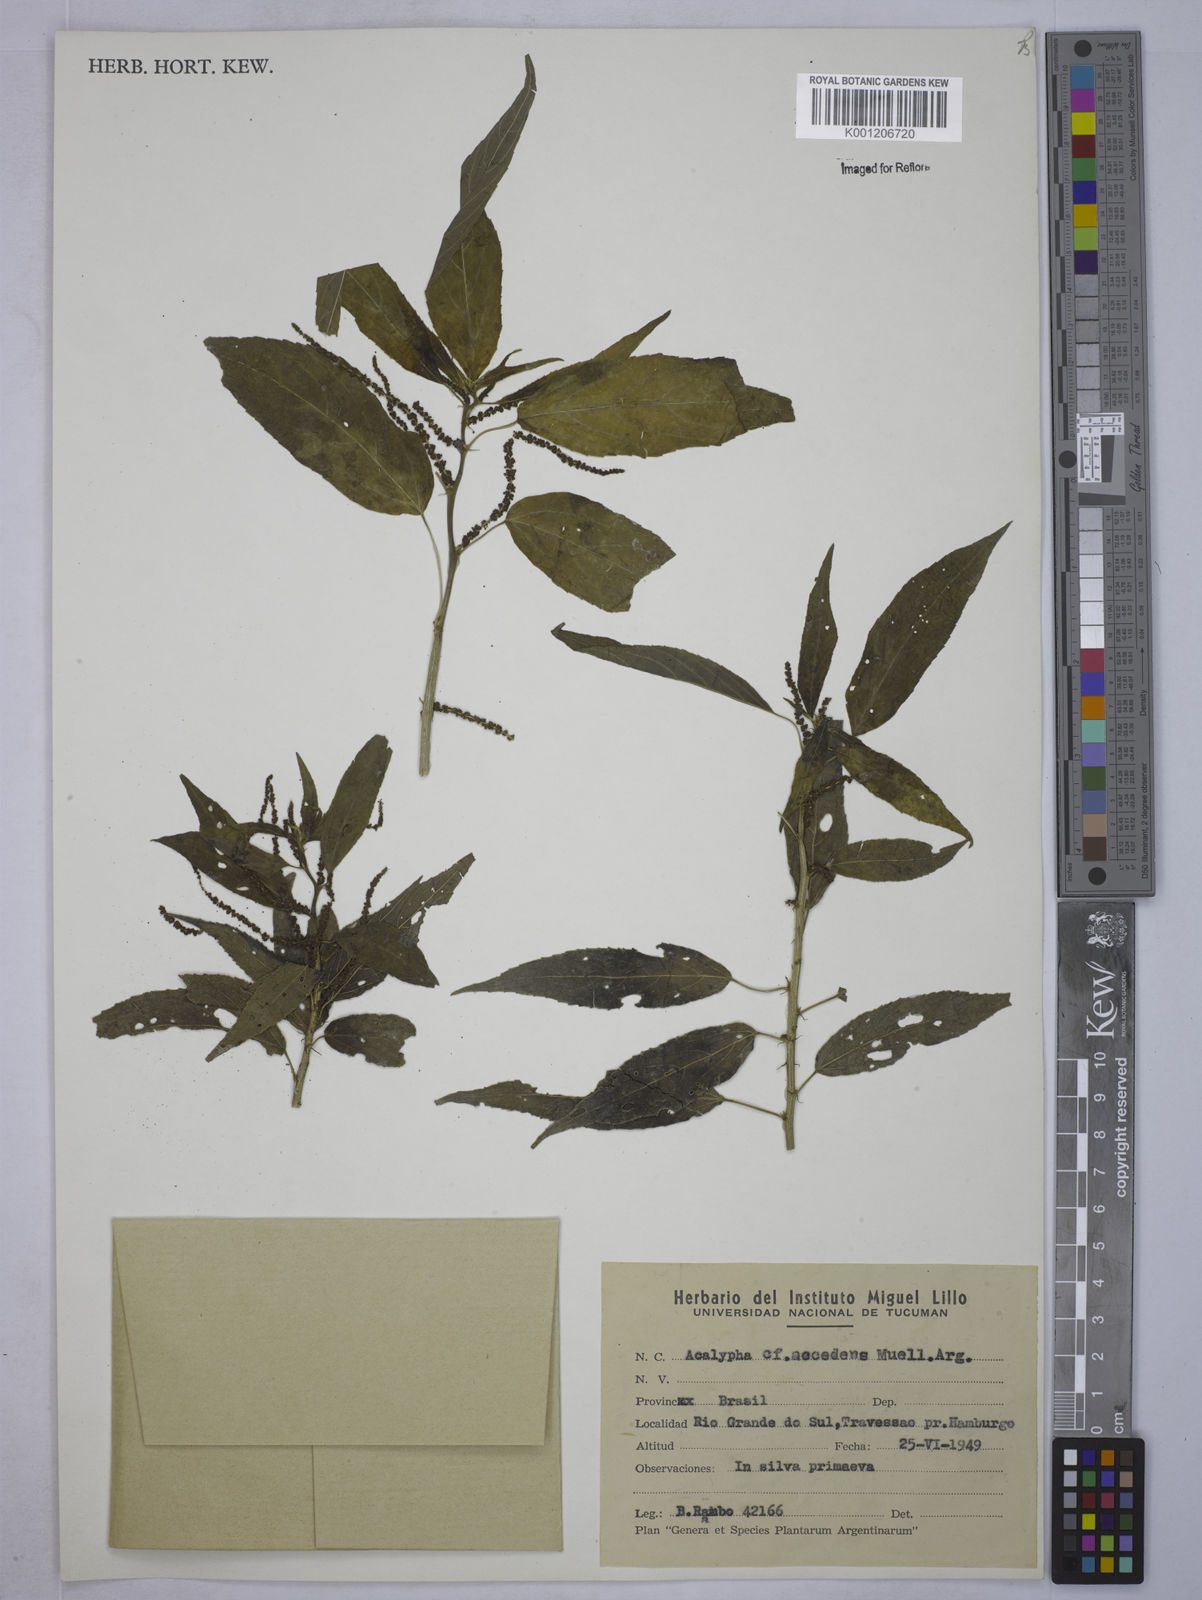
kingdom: Plantae
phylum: Tracheophyta
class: Magnoliopsida
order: Malpighiales
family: Euphorbiaceae
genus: Acalypha
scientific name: Acalypha
